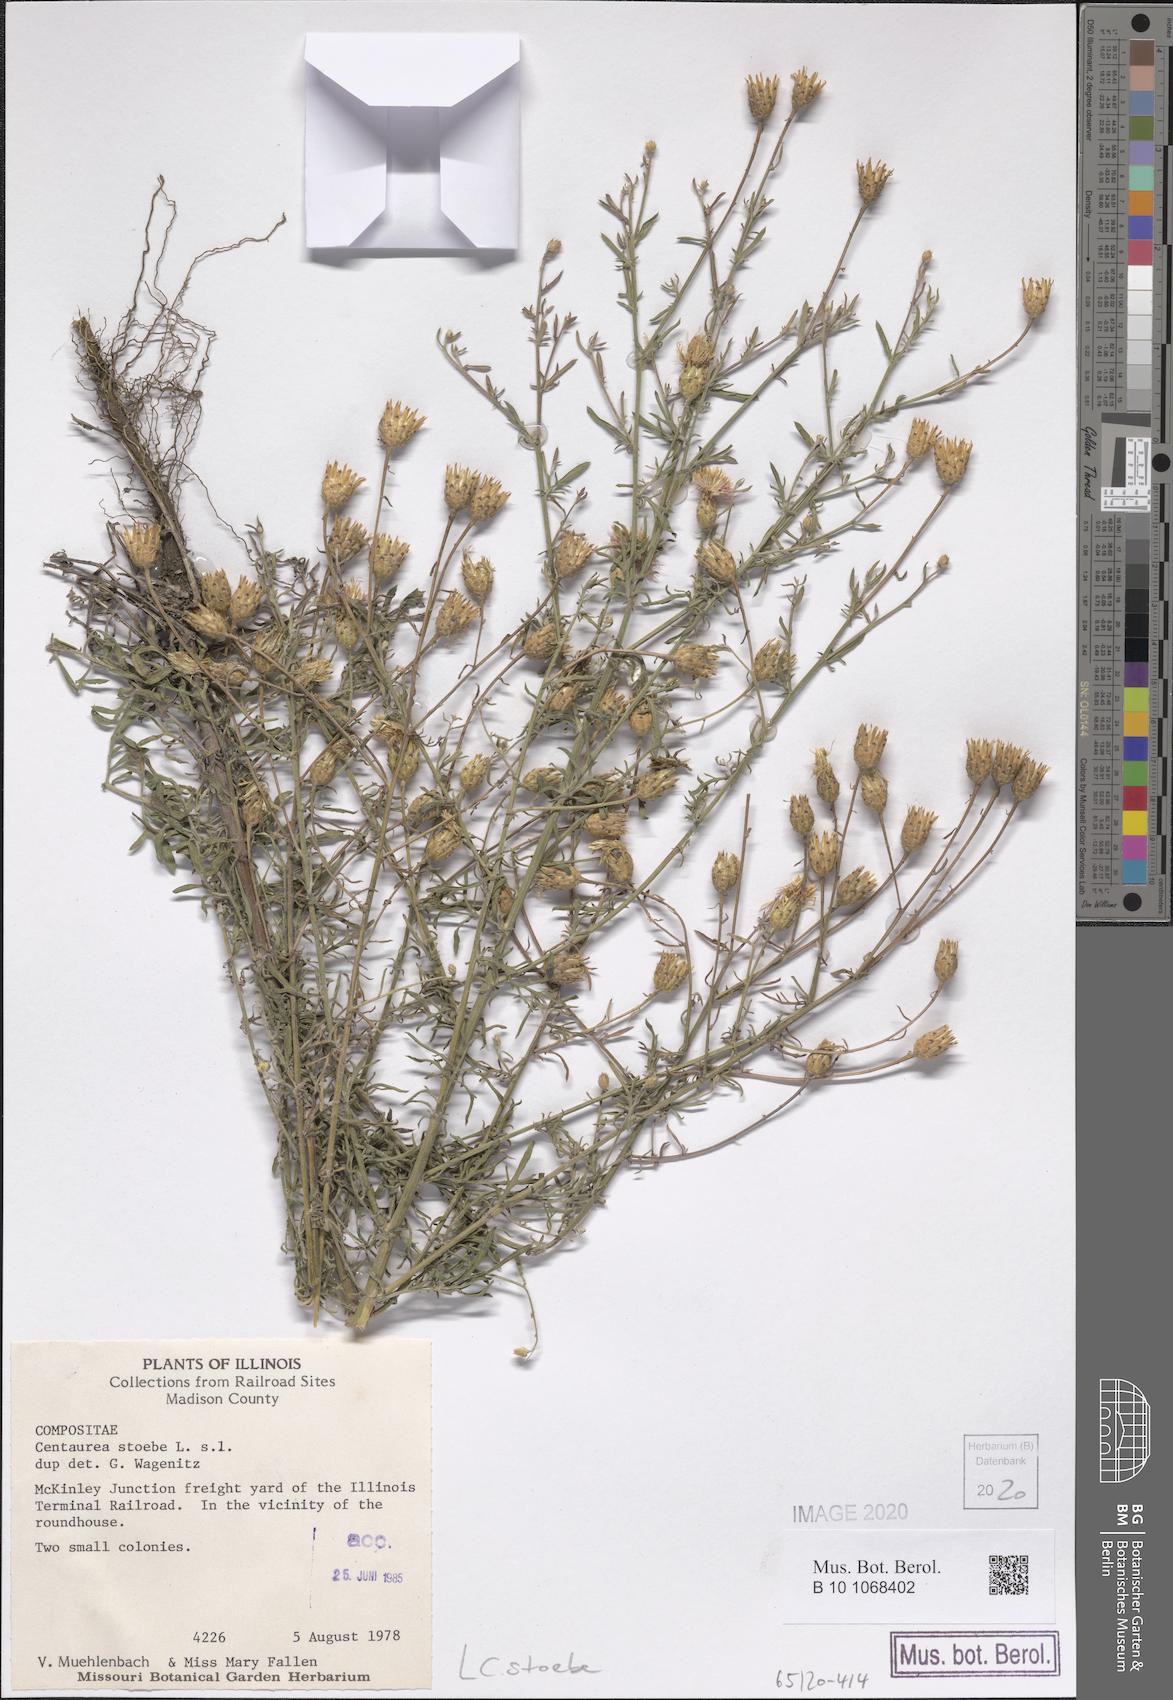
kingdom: Plantae
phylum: Tracheophyta
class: Magnoliopsida
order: Asterales
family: Asteraceae
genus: Centaurea
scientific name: Centaurea stoebe
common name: Spotted knapweed
